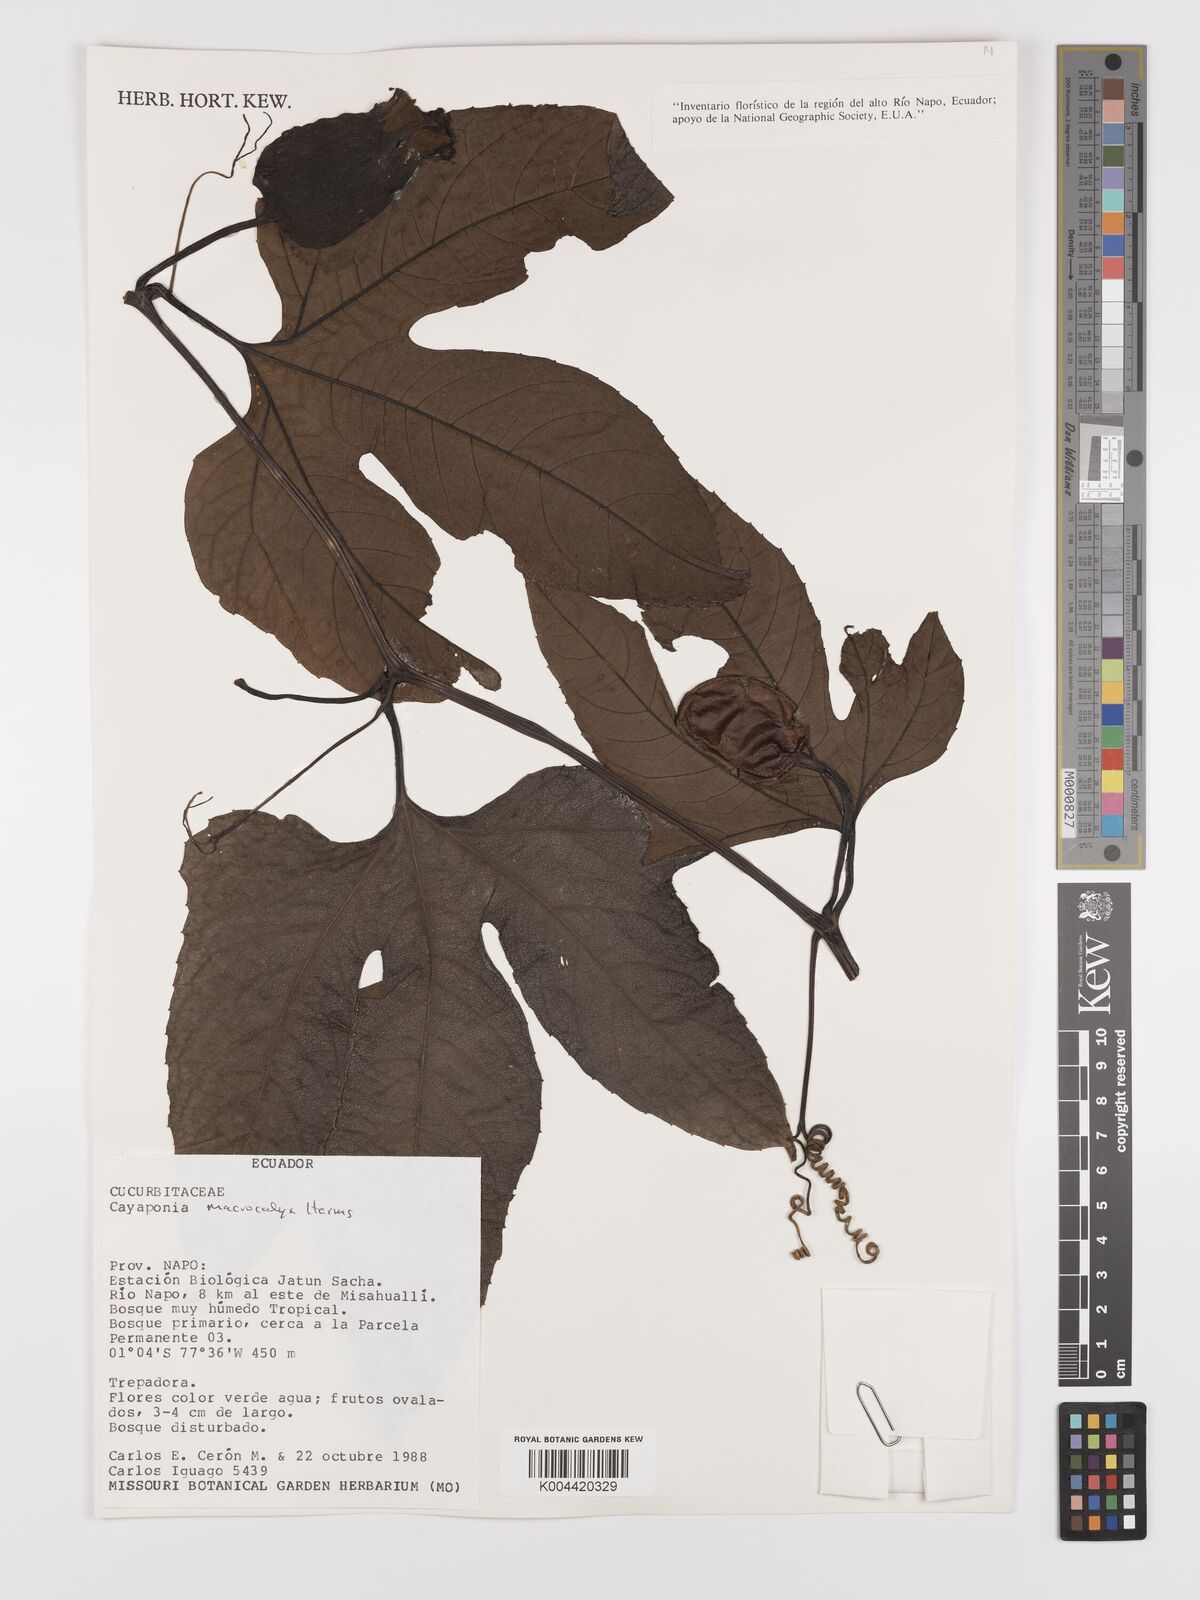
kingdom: Plantae
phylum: Tracheophyta
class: Magnoliopsida
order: Cucurbitales
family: Cucurbitaceae
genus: Cayaponia
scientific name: Cayaponia macrocalyx
